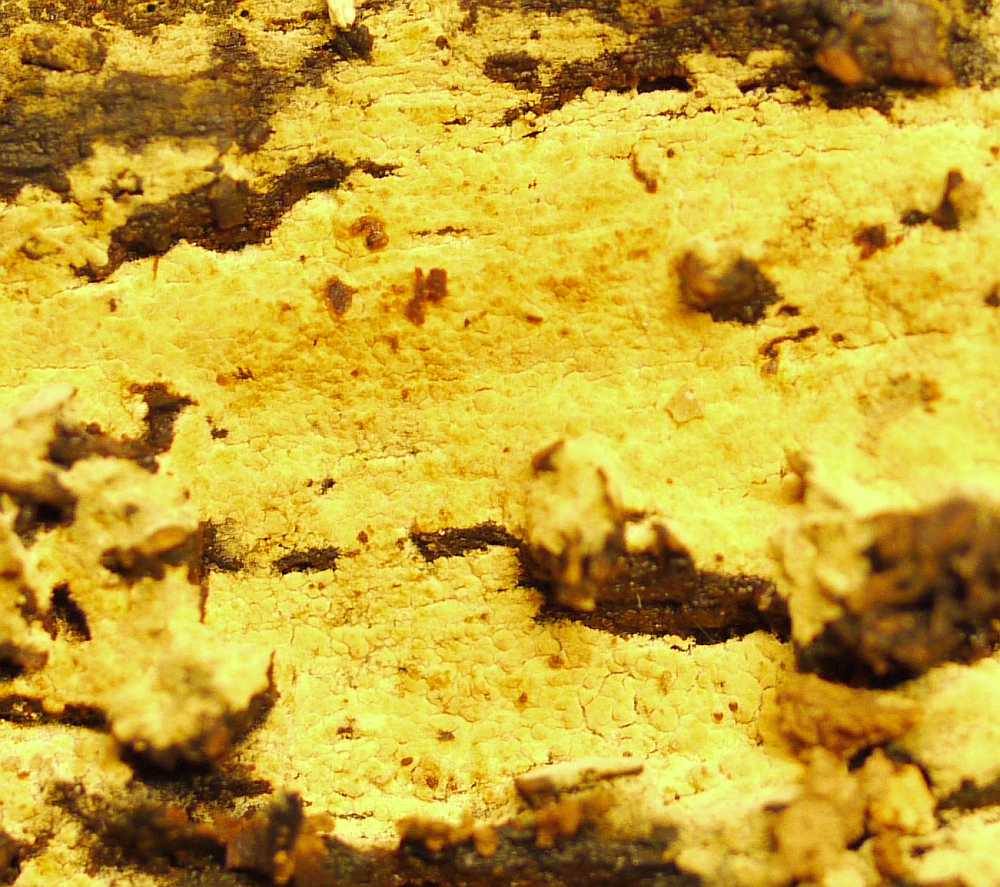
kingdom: Fungi
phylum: Basidiomycota
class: Agaricomycetes
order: Boletales
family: Coniophoraceae
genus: Coniophora
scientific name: Coniophora puteana
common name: gul tømmersvamp
